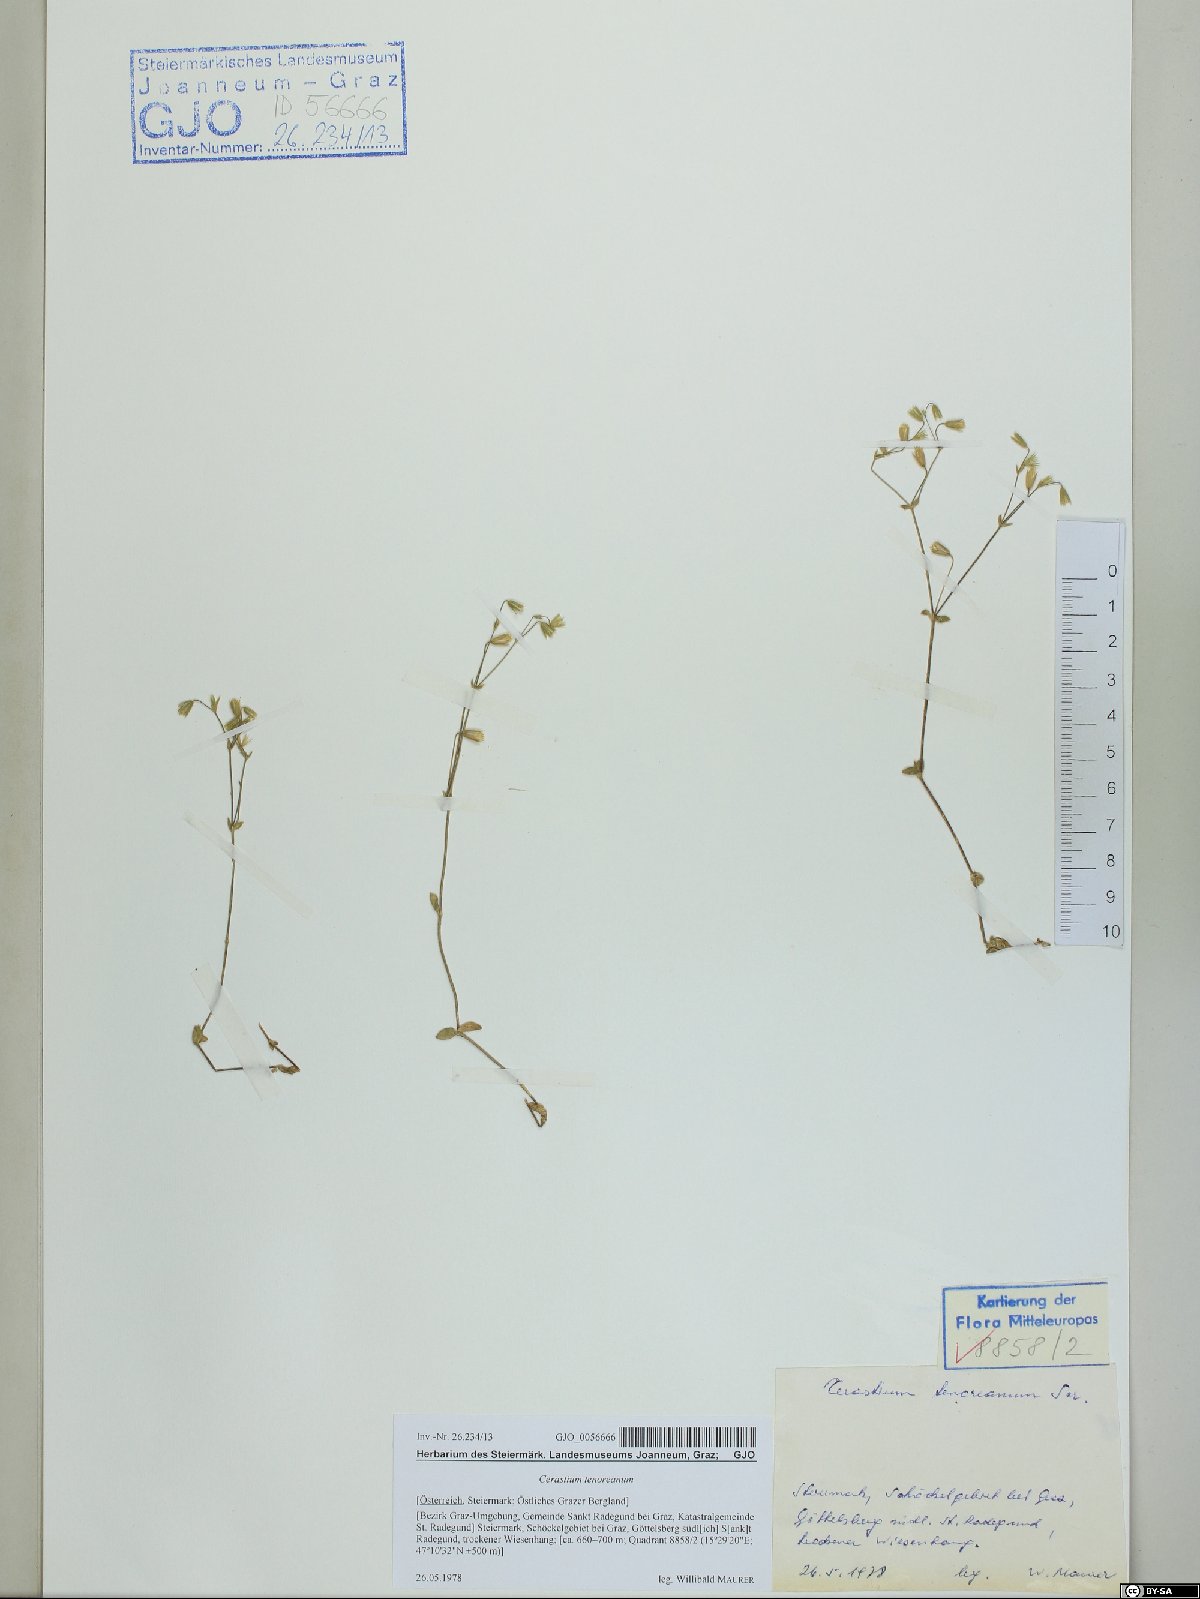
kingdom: Plantae
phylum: Tracheophyta
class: Magnoliopsida
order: Caryophyllales
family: Caryophyllaceae
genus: Cerastium
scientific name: Cerastium tenoreanum
